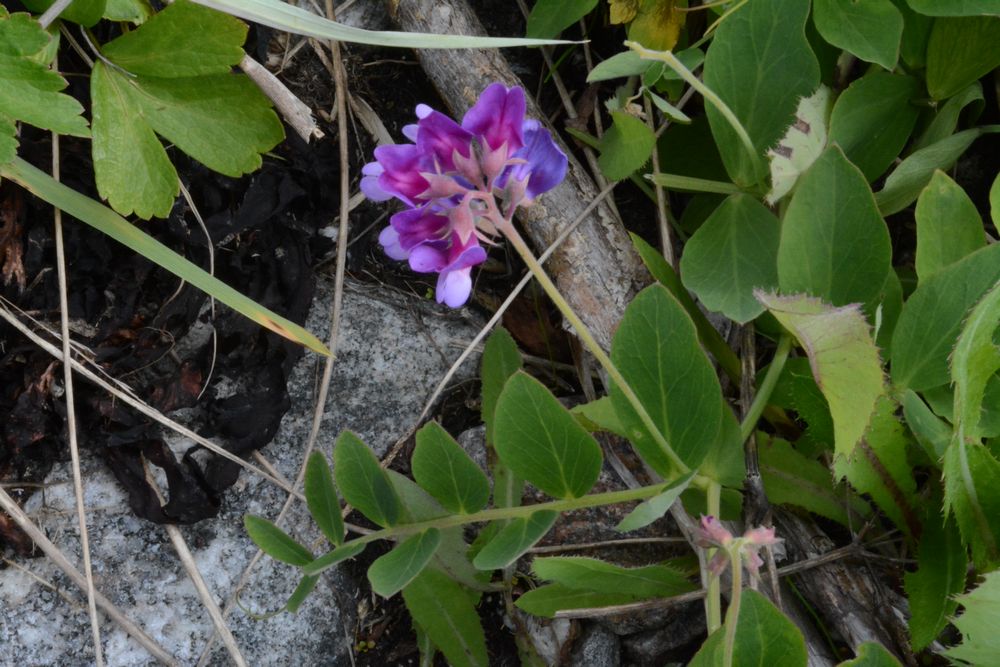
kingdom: Plantae
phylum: Tracheophyta
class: Magnoliopsida
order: Fabales
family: Fabaceae
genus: Lathyrus
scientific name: Lathyrus japonicus
